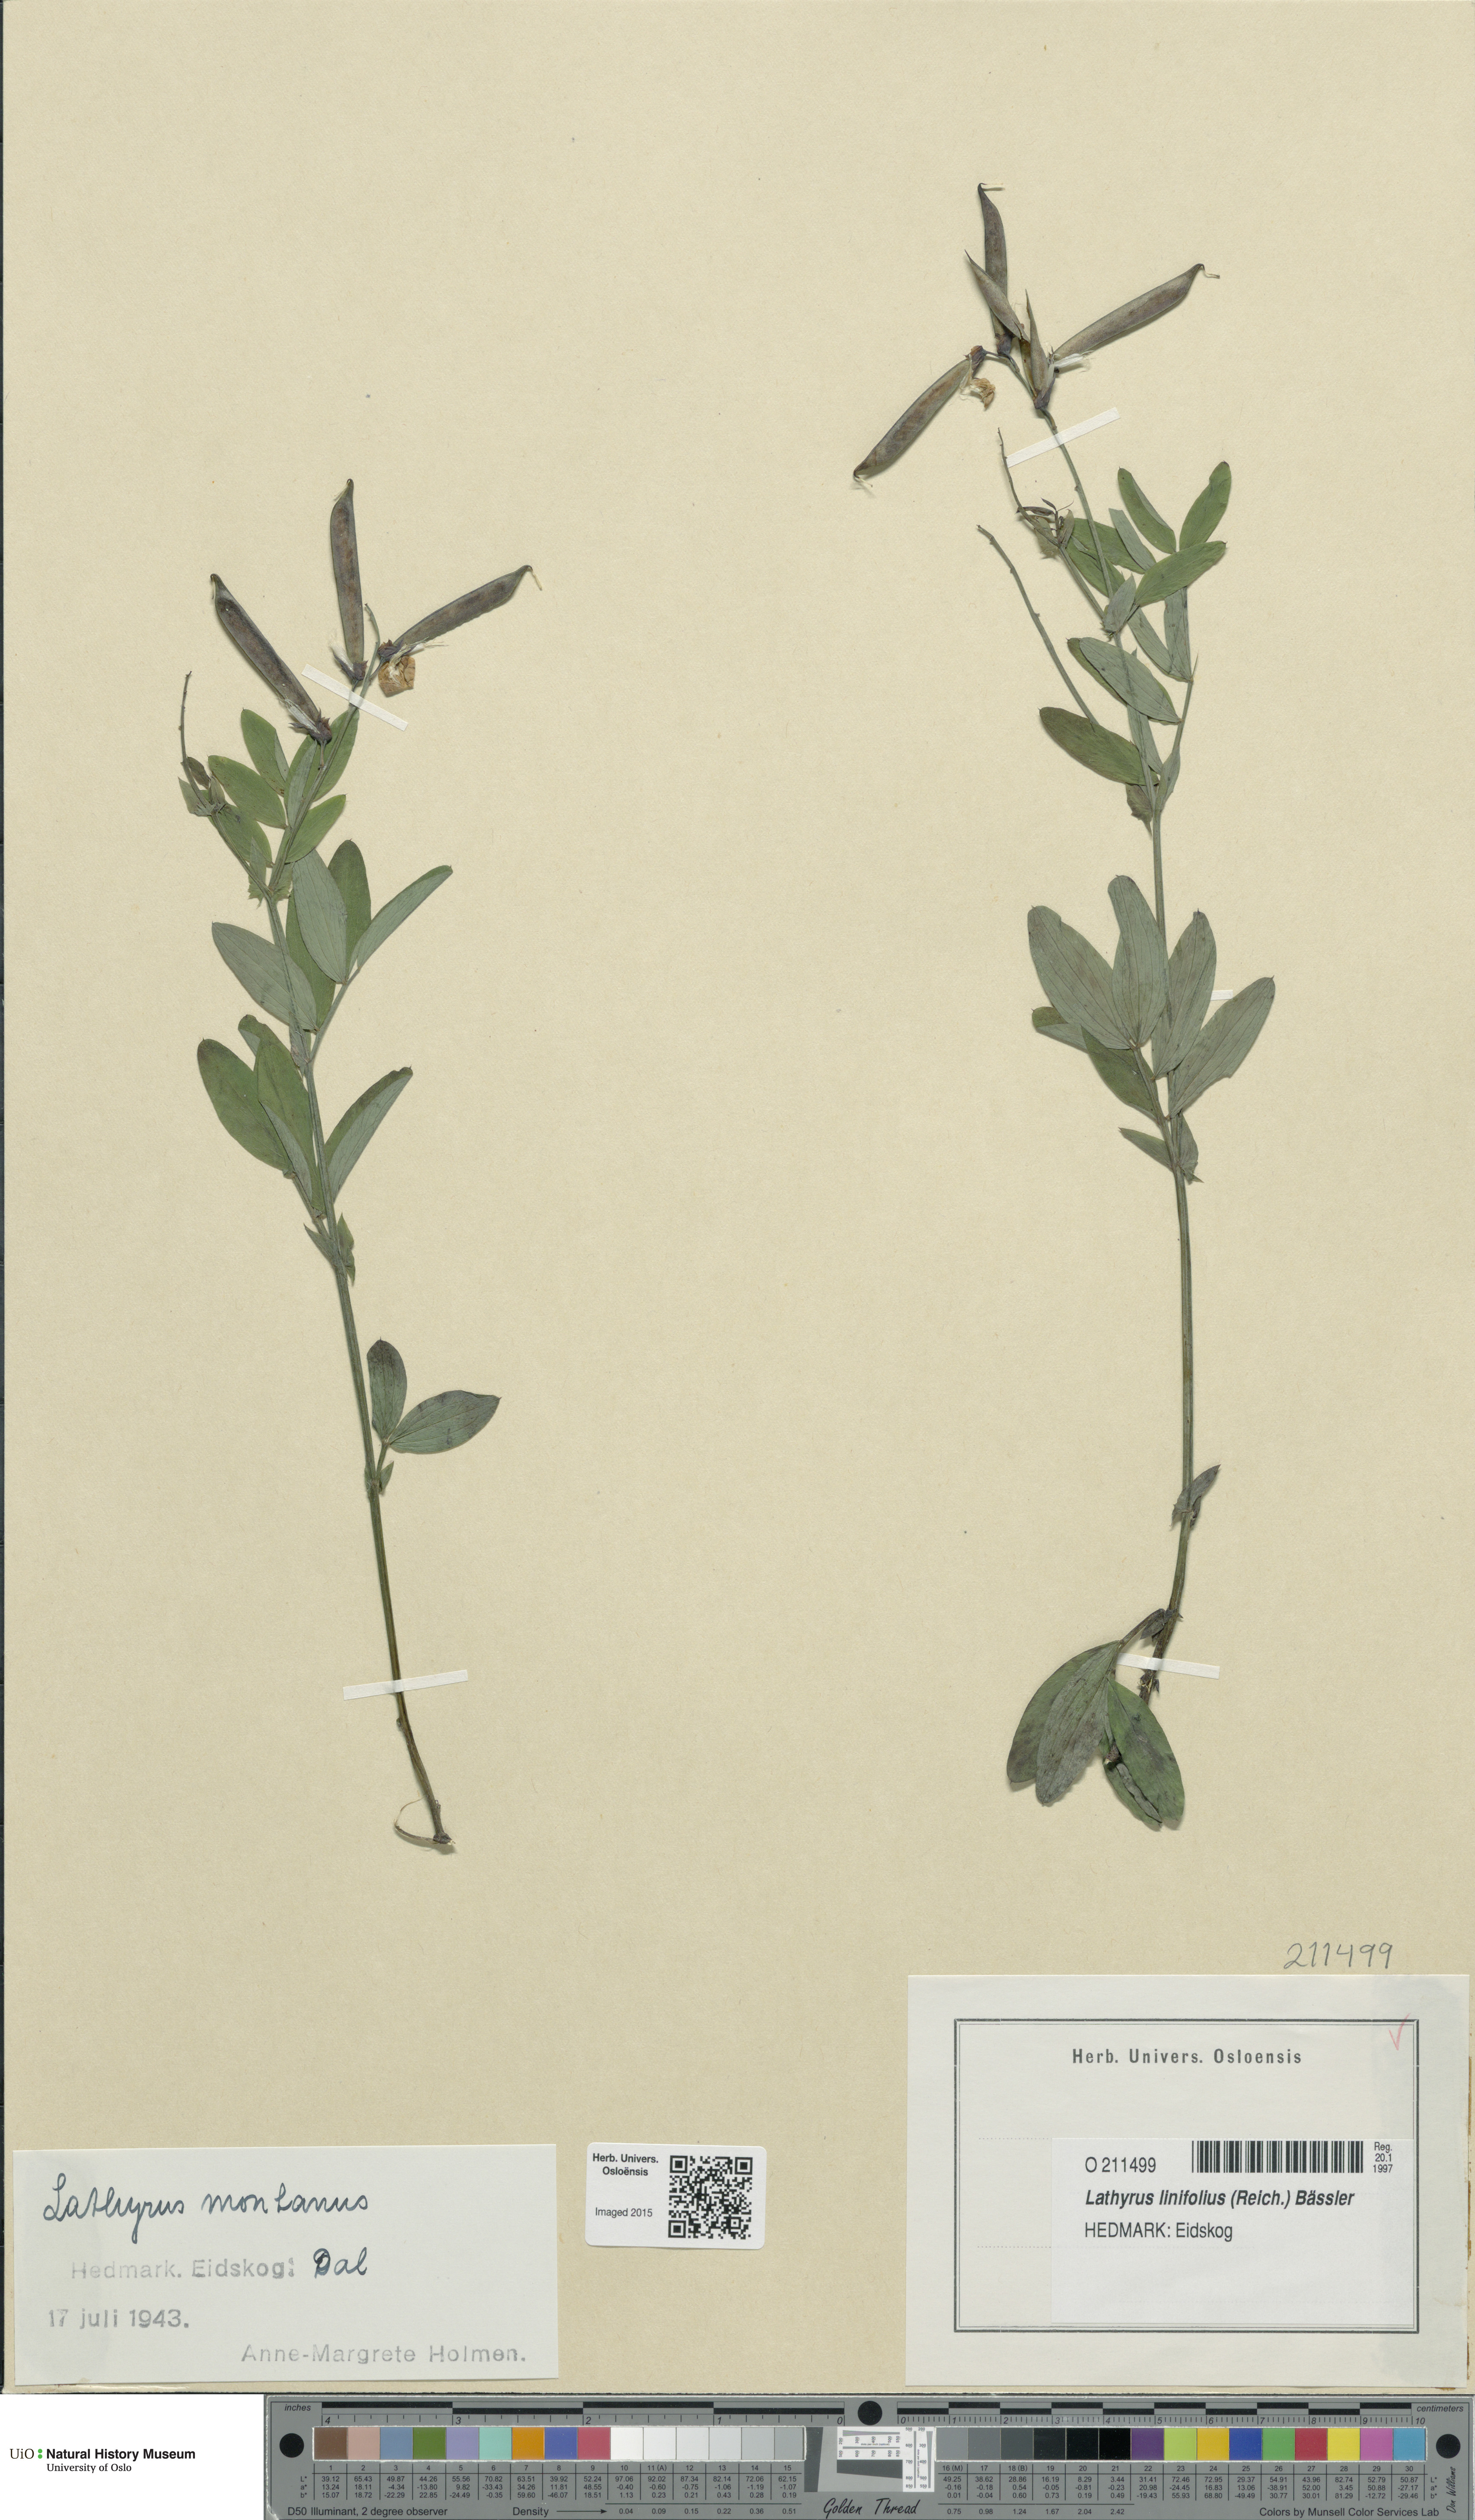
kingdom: Plantae
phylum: Tracheophyta
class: Magnoliopsida
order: Fabales
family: Fabaceae
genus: Lathyrus
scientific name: Lathyrus linifolius
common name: Bitter-vetch
